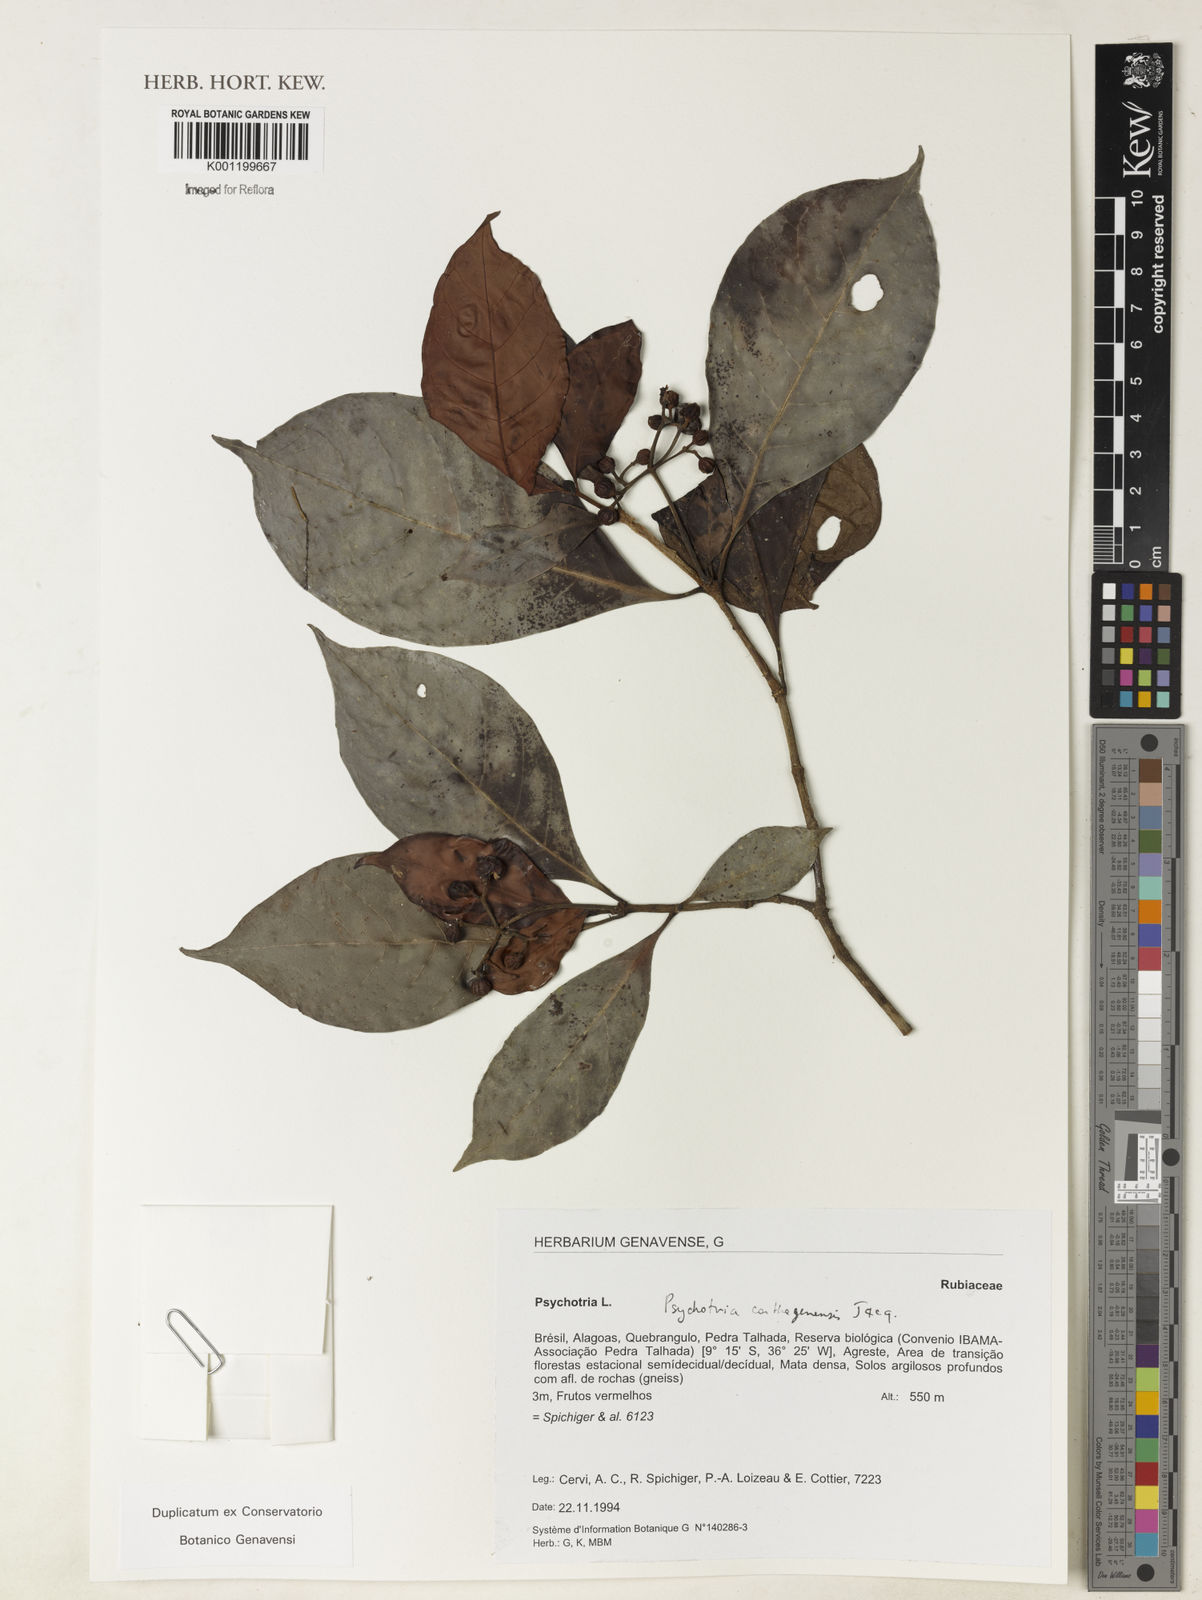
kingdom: Plantae
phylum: Tracheophyta
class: Magnoliopsida
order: Gentianales
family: Rubiaceae
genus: Psychotria
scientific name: Psychotria carthagenensis
